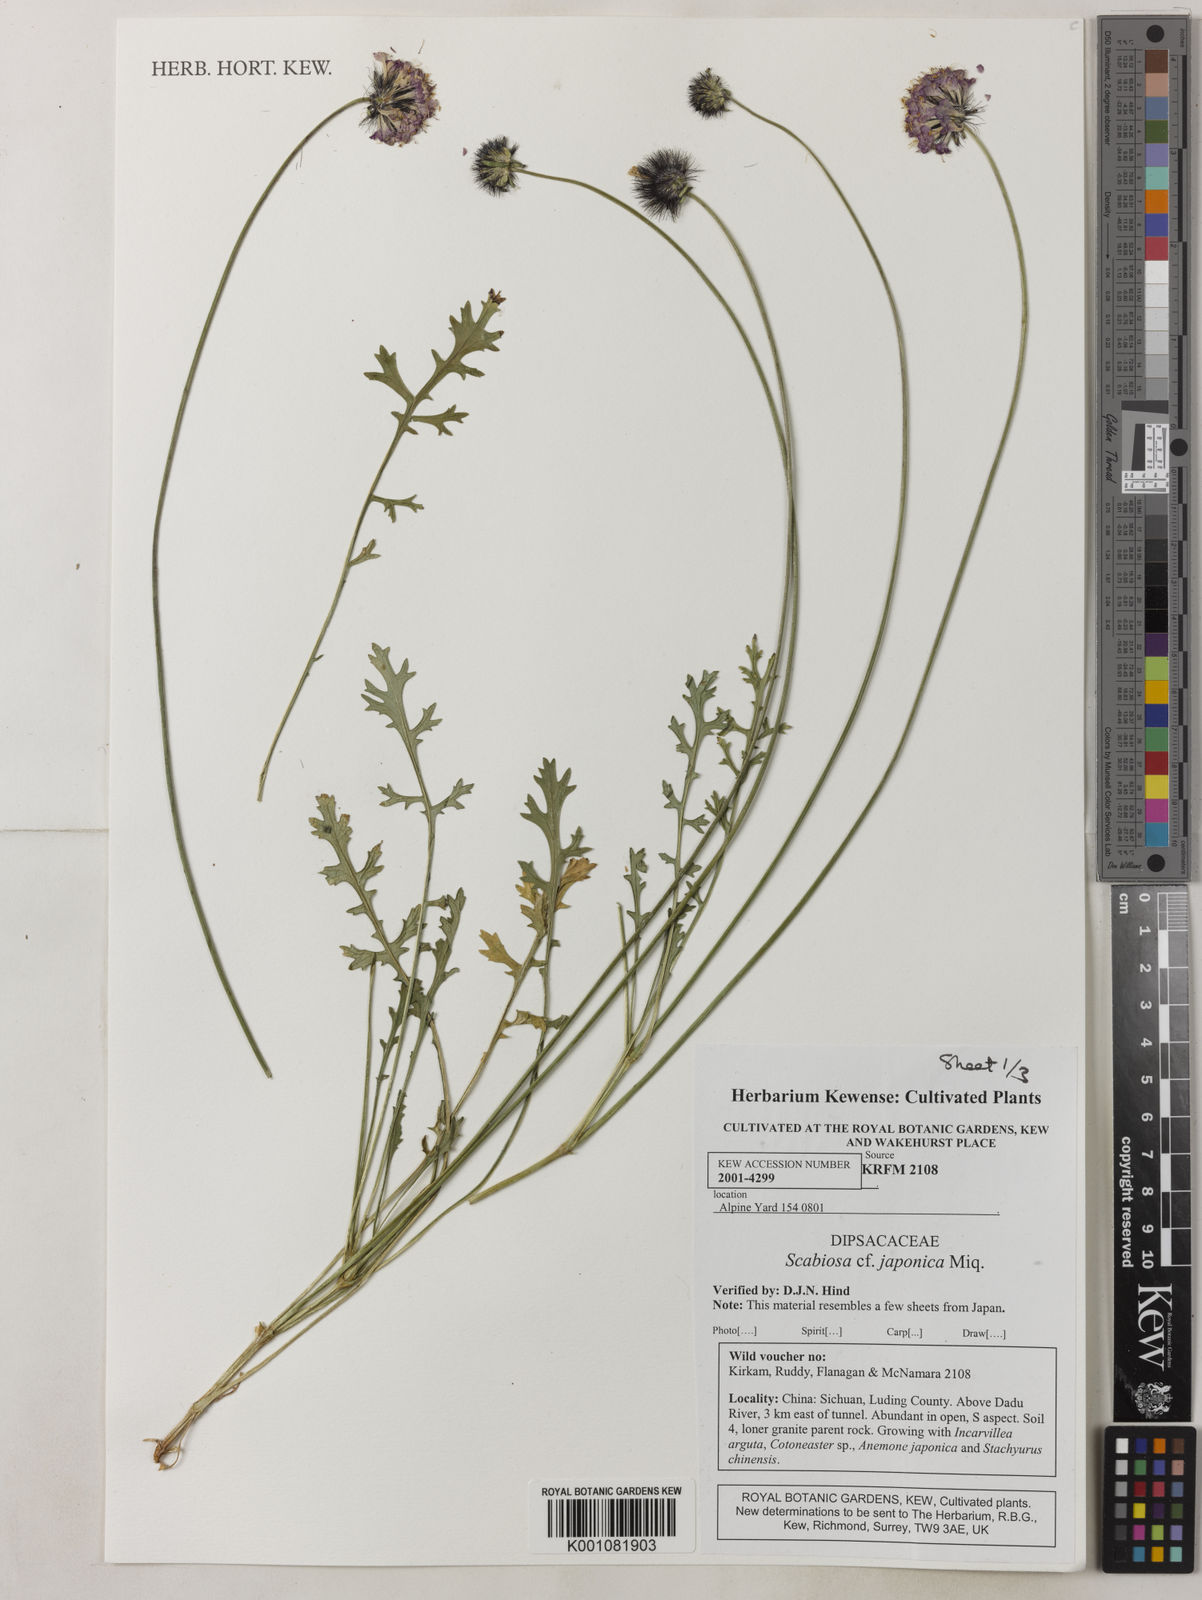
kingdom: Plantae
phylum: Tracheophyta
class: Magnoliopsida
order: Dipsacales
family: Caprifoliaceae
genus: Scabiosa
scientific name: Scabiosa japonica
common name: Pincushion-flower
